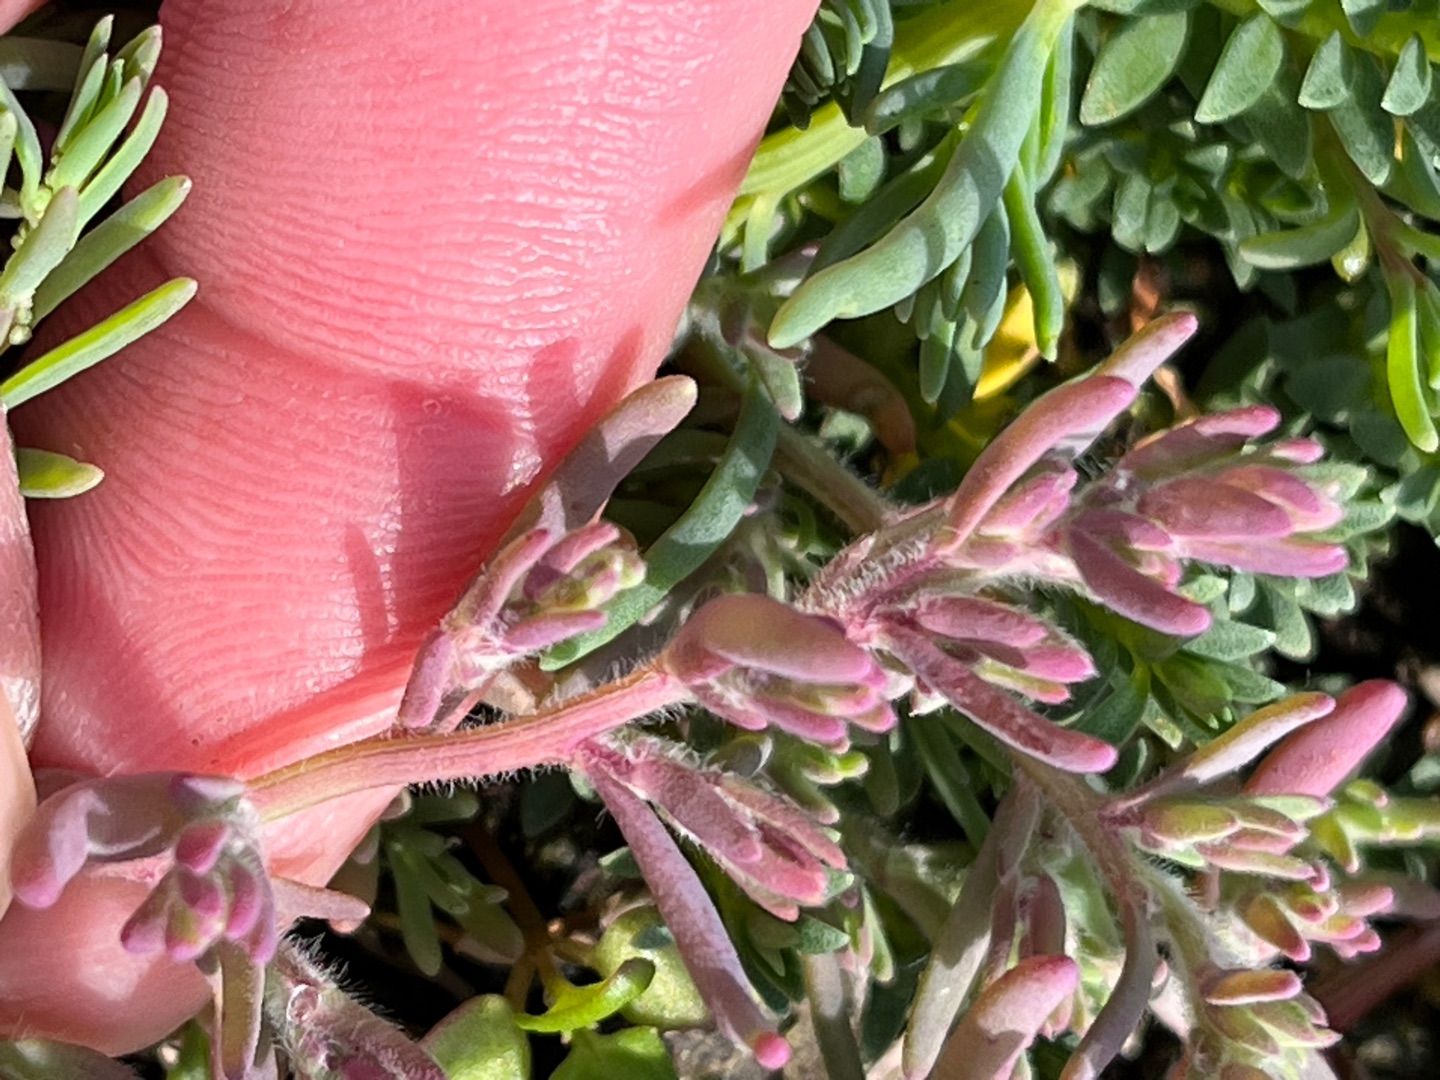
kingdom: Plantae
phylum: Tracheophyta
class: Magnoliopsida
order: Caryophyllales
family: Amaranthaceae
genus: Spirobassia
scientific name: Spirobassia hirsuta
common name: Tangurt
